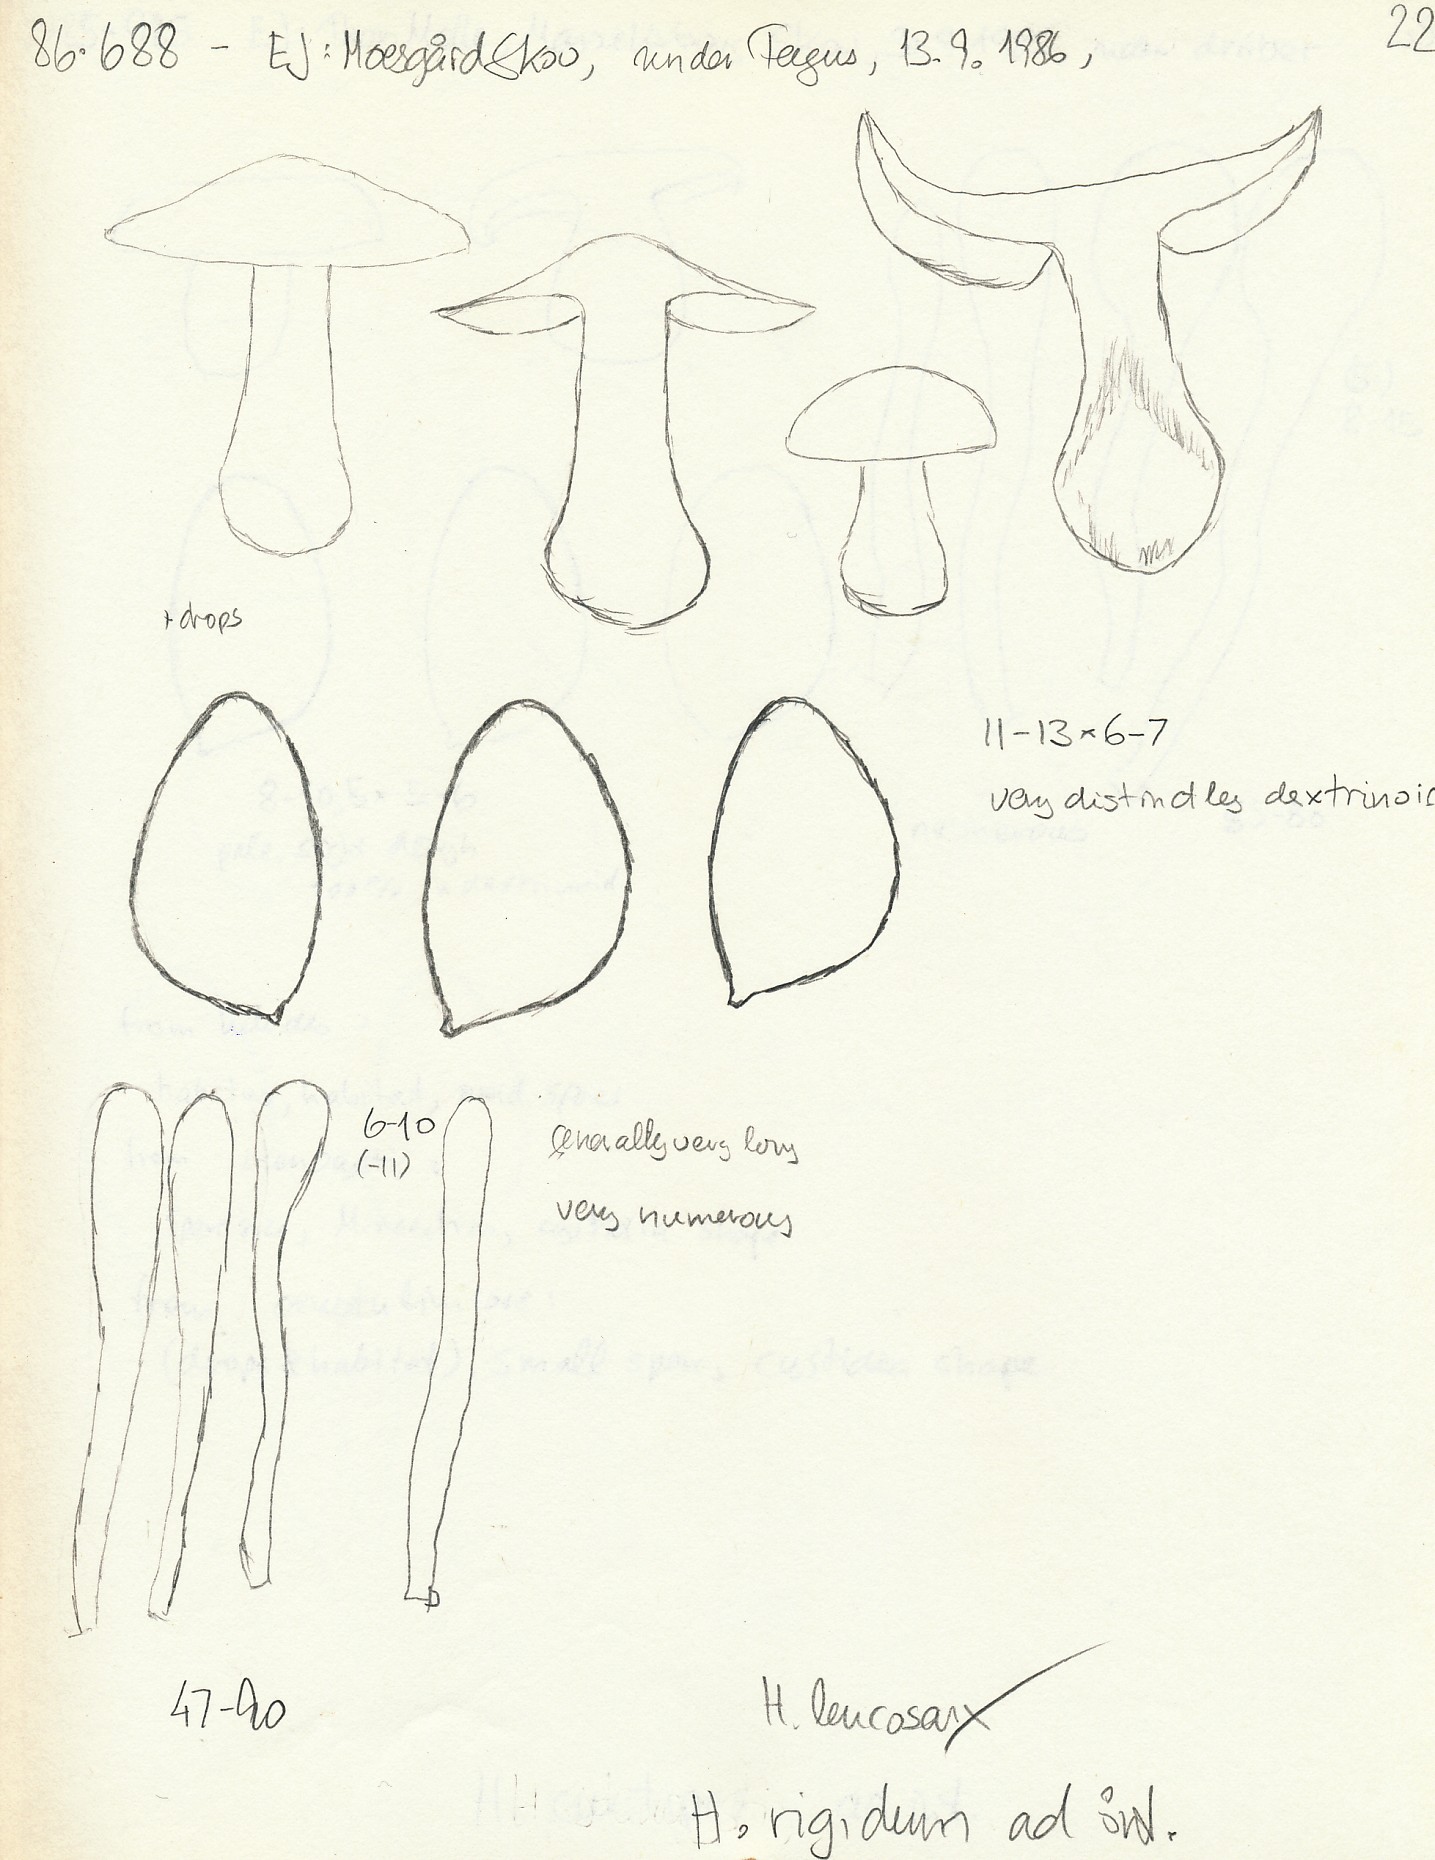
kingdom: Fungi
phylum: Basidiomycota
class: Agaricomycetes
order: Agaricales
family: Hymenogastraceae
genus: Hebeloma
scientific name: Hebeloma leucosarx
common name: højstokket tåreblad
